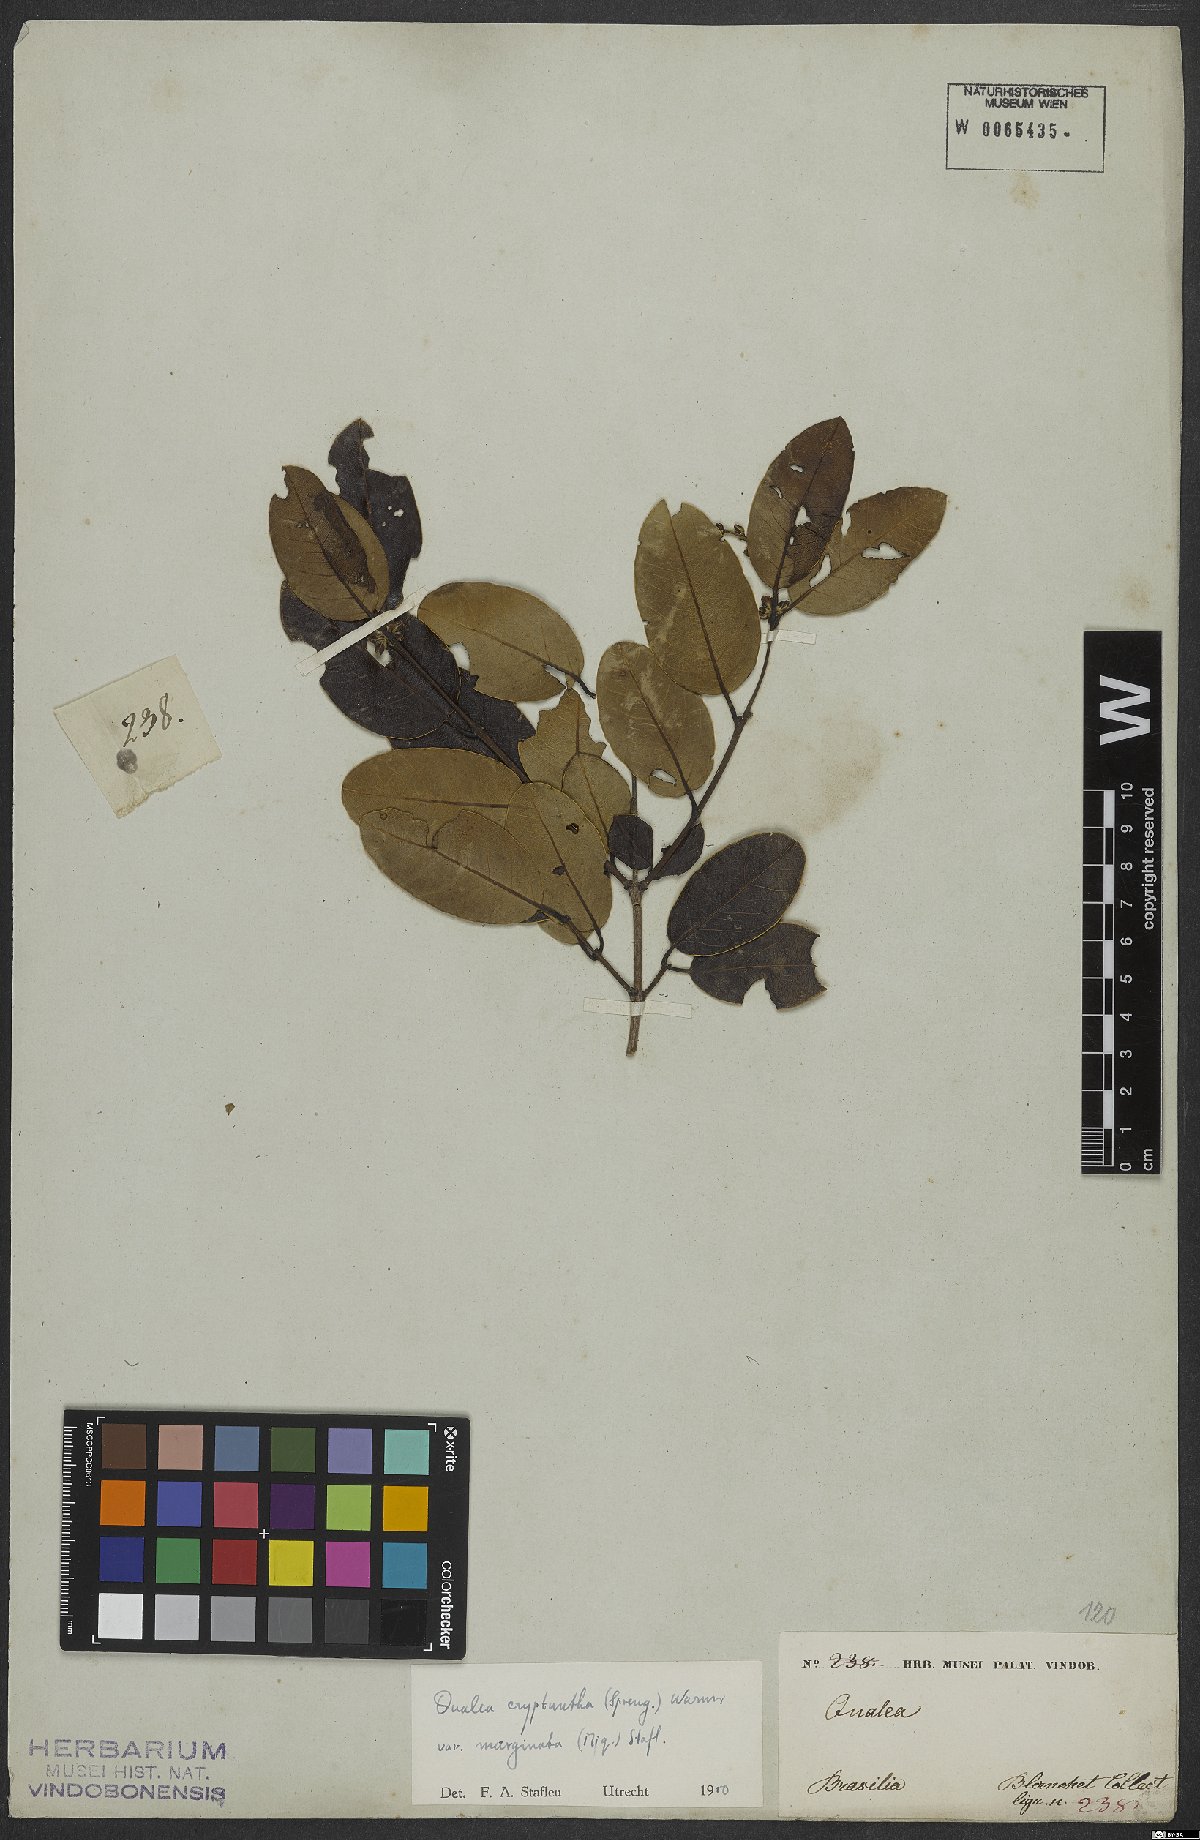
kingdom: Plantae
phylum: Tracheophyta
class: Magnoliopsida
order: Myrtales
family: Vochysiaceae
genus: Qualea
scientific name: Qualea cryptantha
